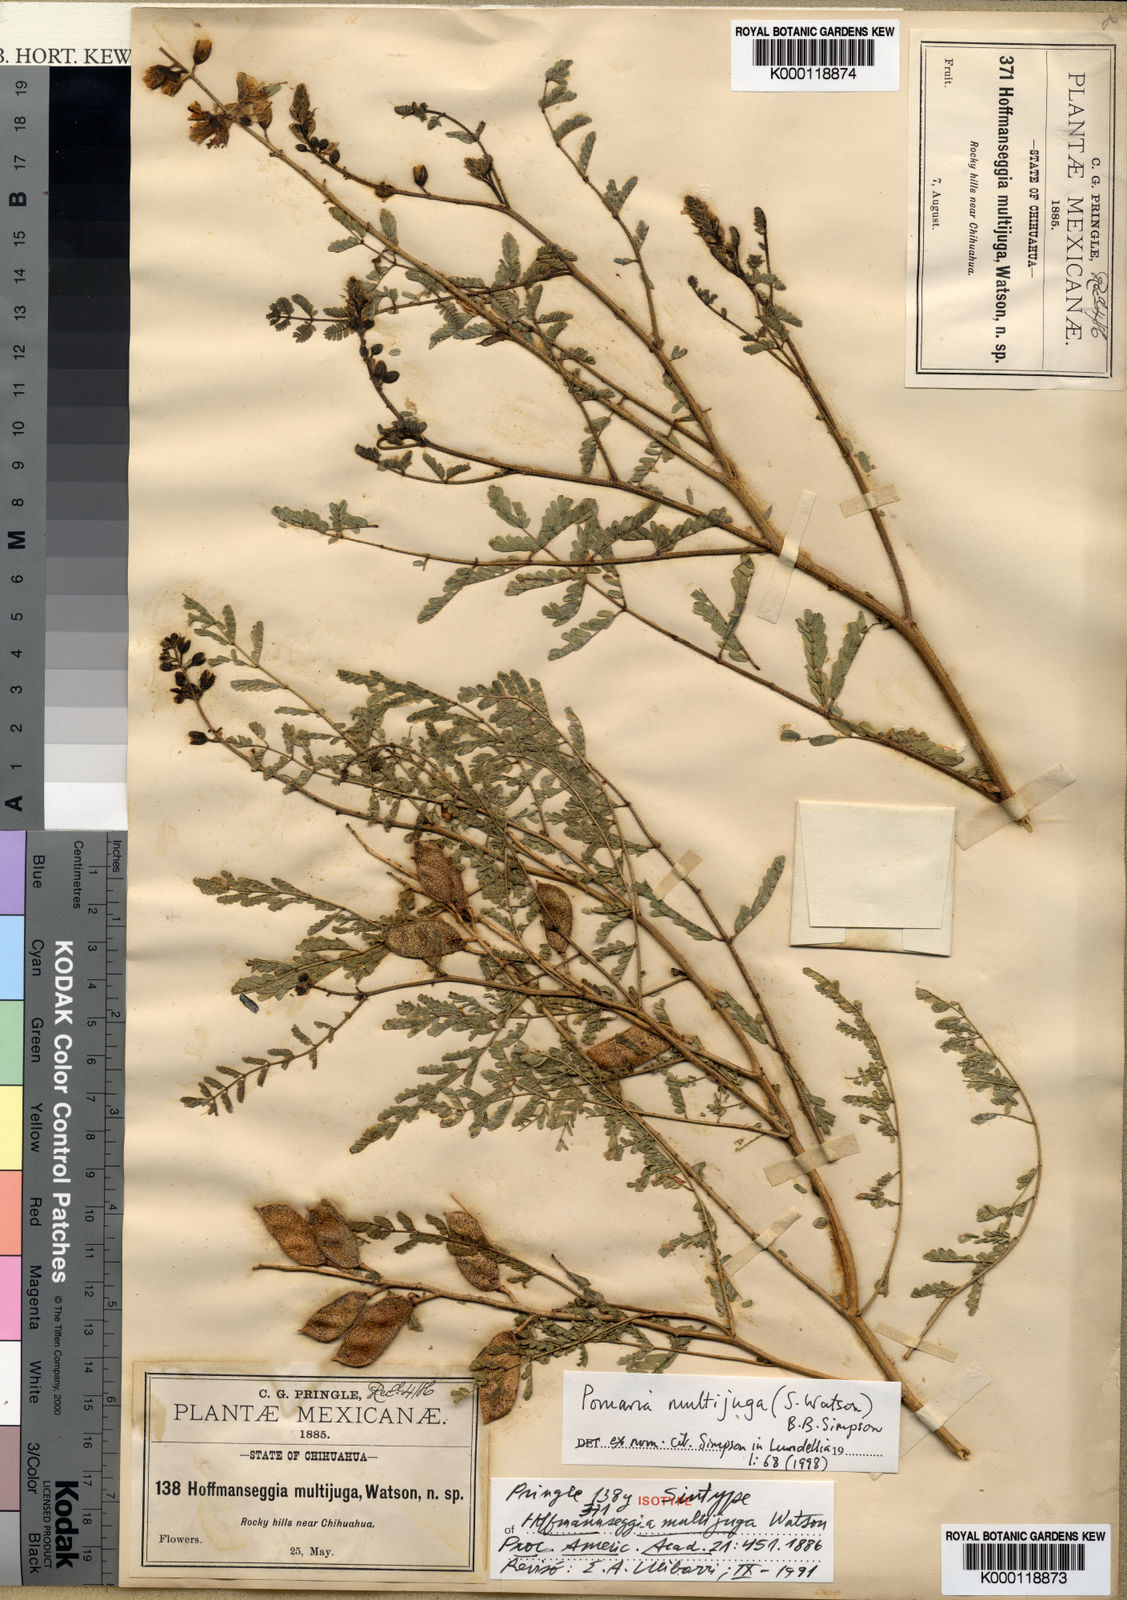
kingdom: Plantae
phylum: Tracheophyta
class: Magnoliopsida
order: Fabales
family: Fabaceae
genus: Pomaria
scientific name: Pomaria multijuga
